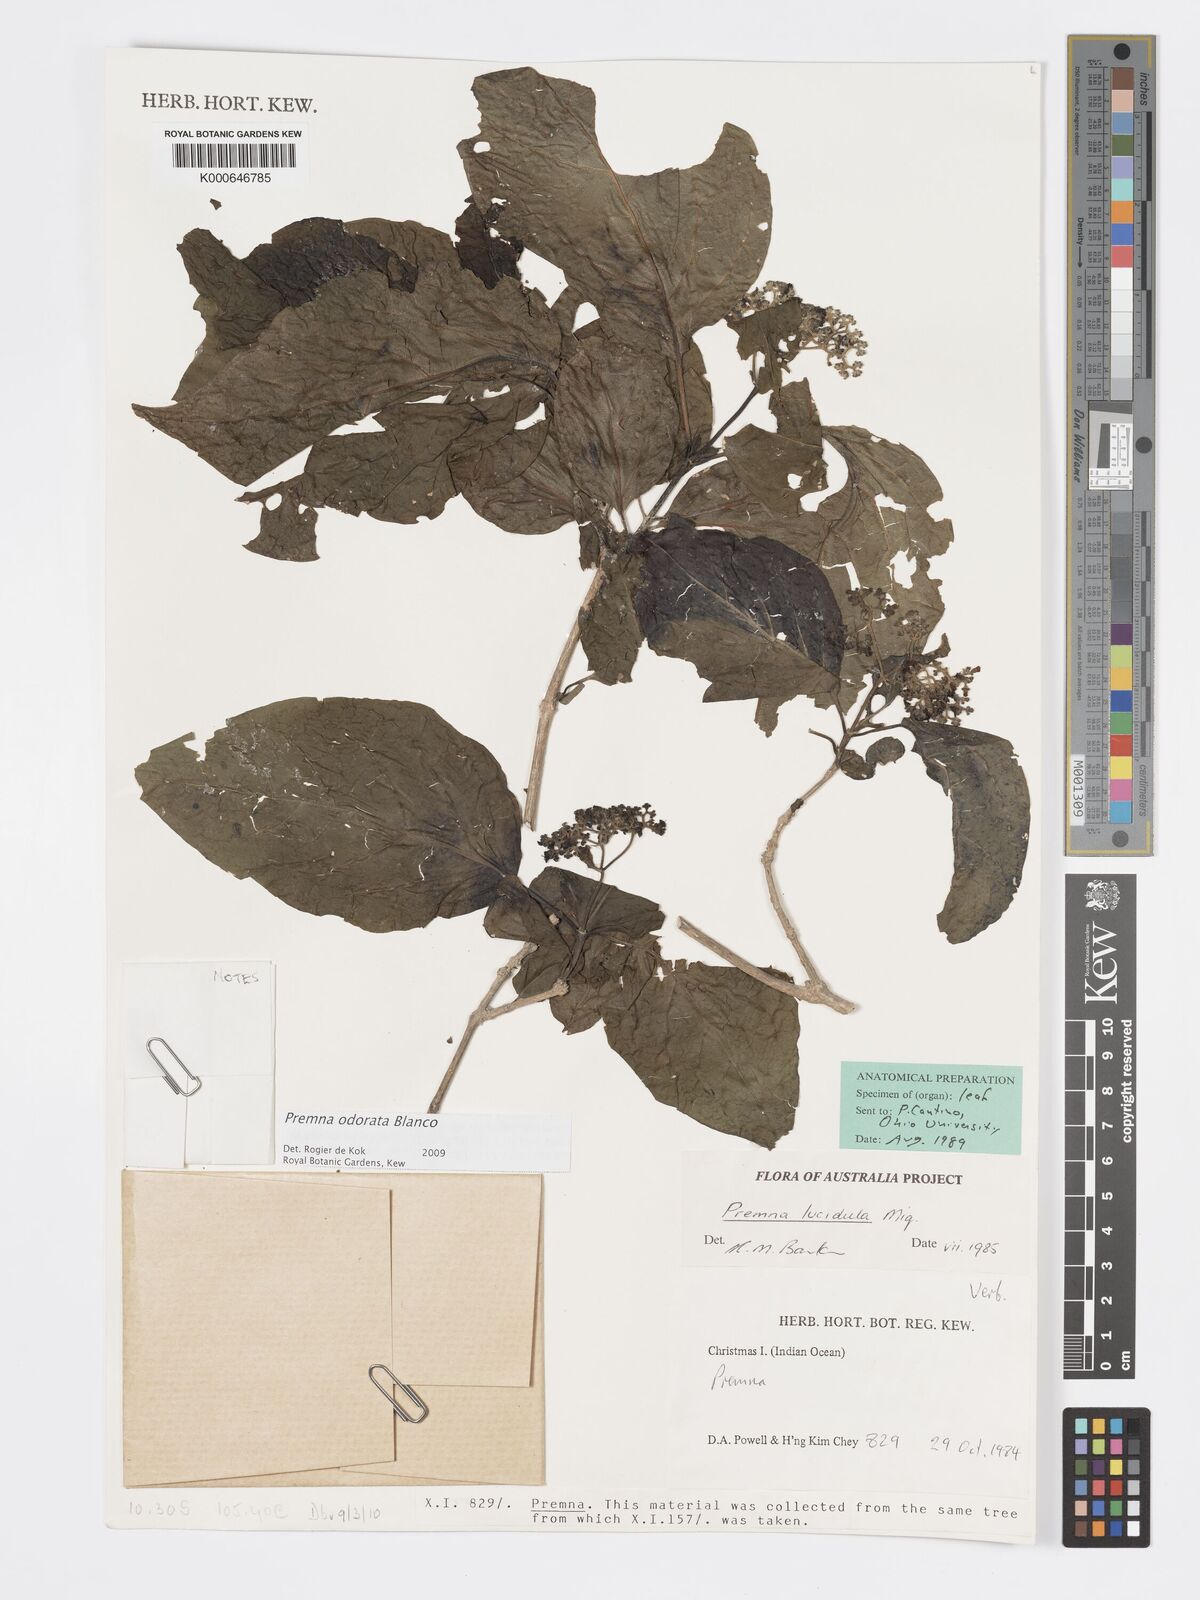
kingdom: Plantae
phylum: Tracheophyta
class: Magnoliopsida
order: Lamiales
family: Lamiaceae
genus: Premna
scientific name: Premna odorata
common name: Fragrant premna
